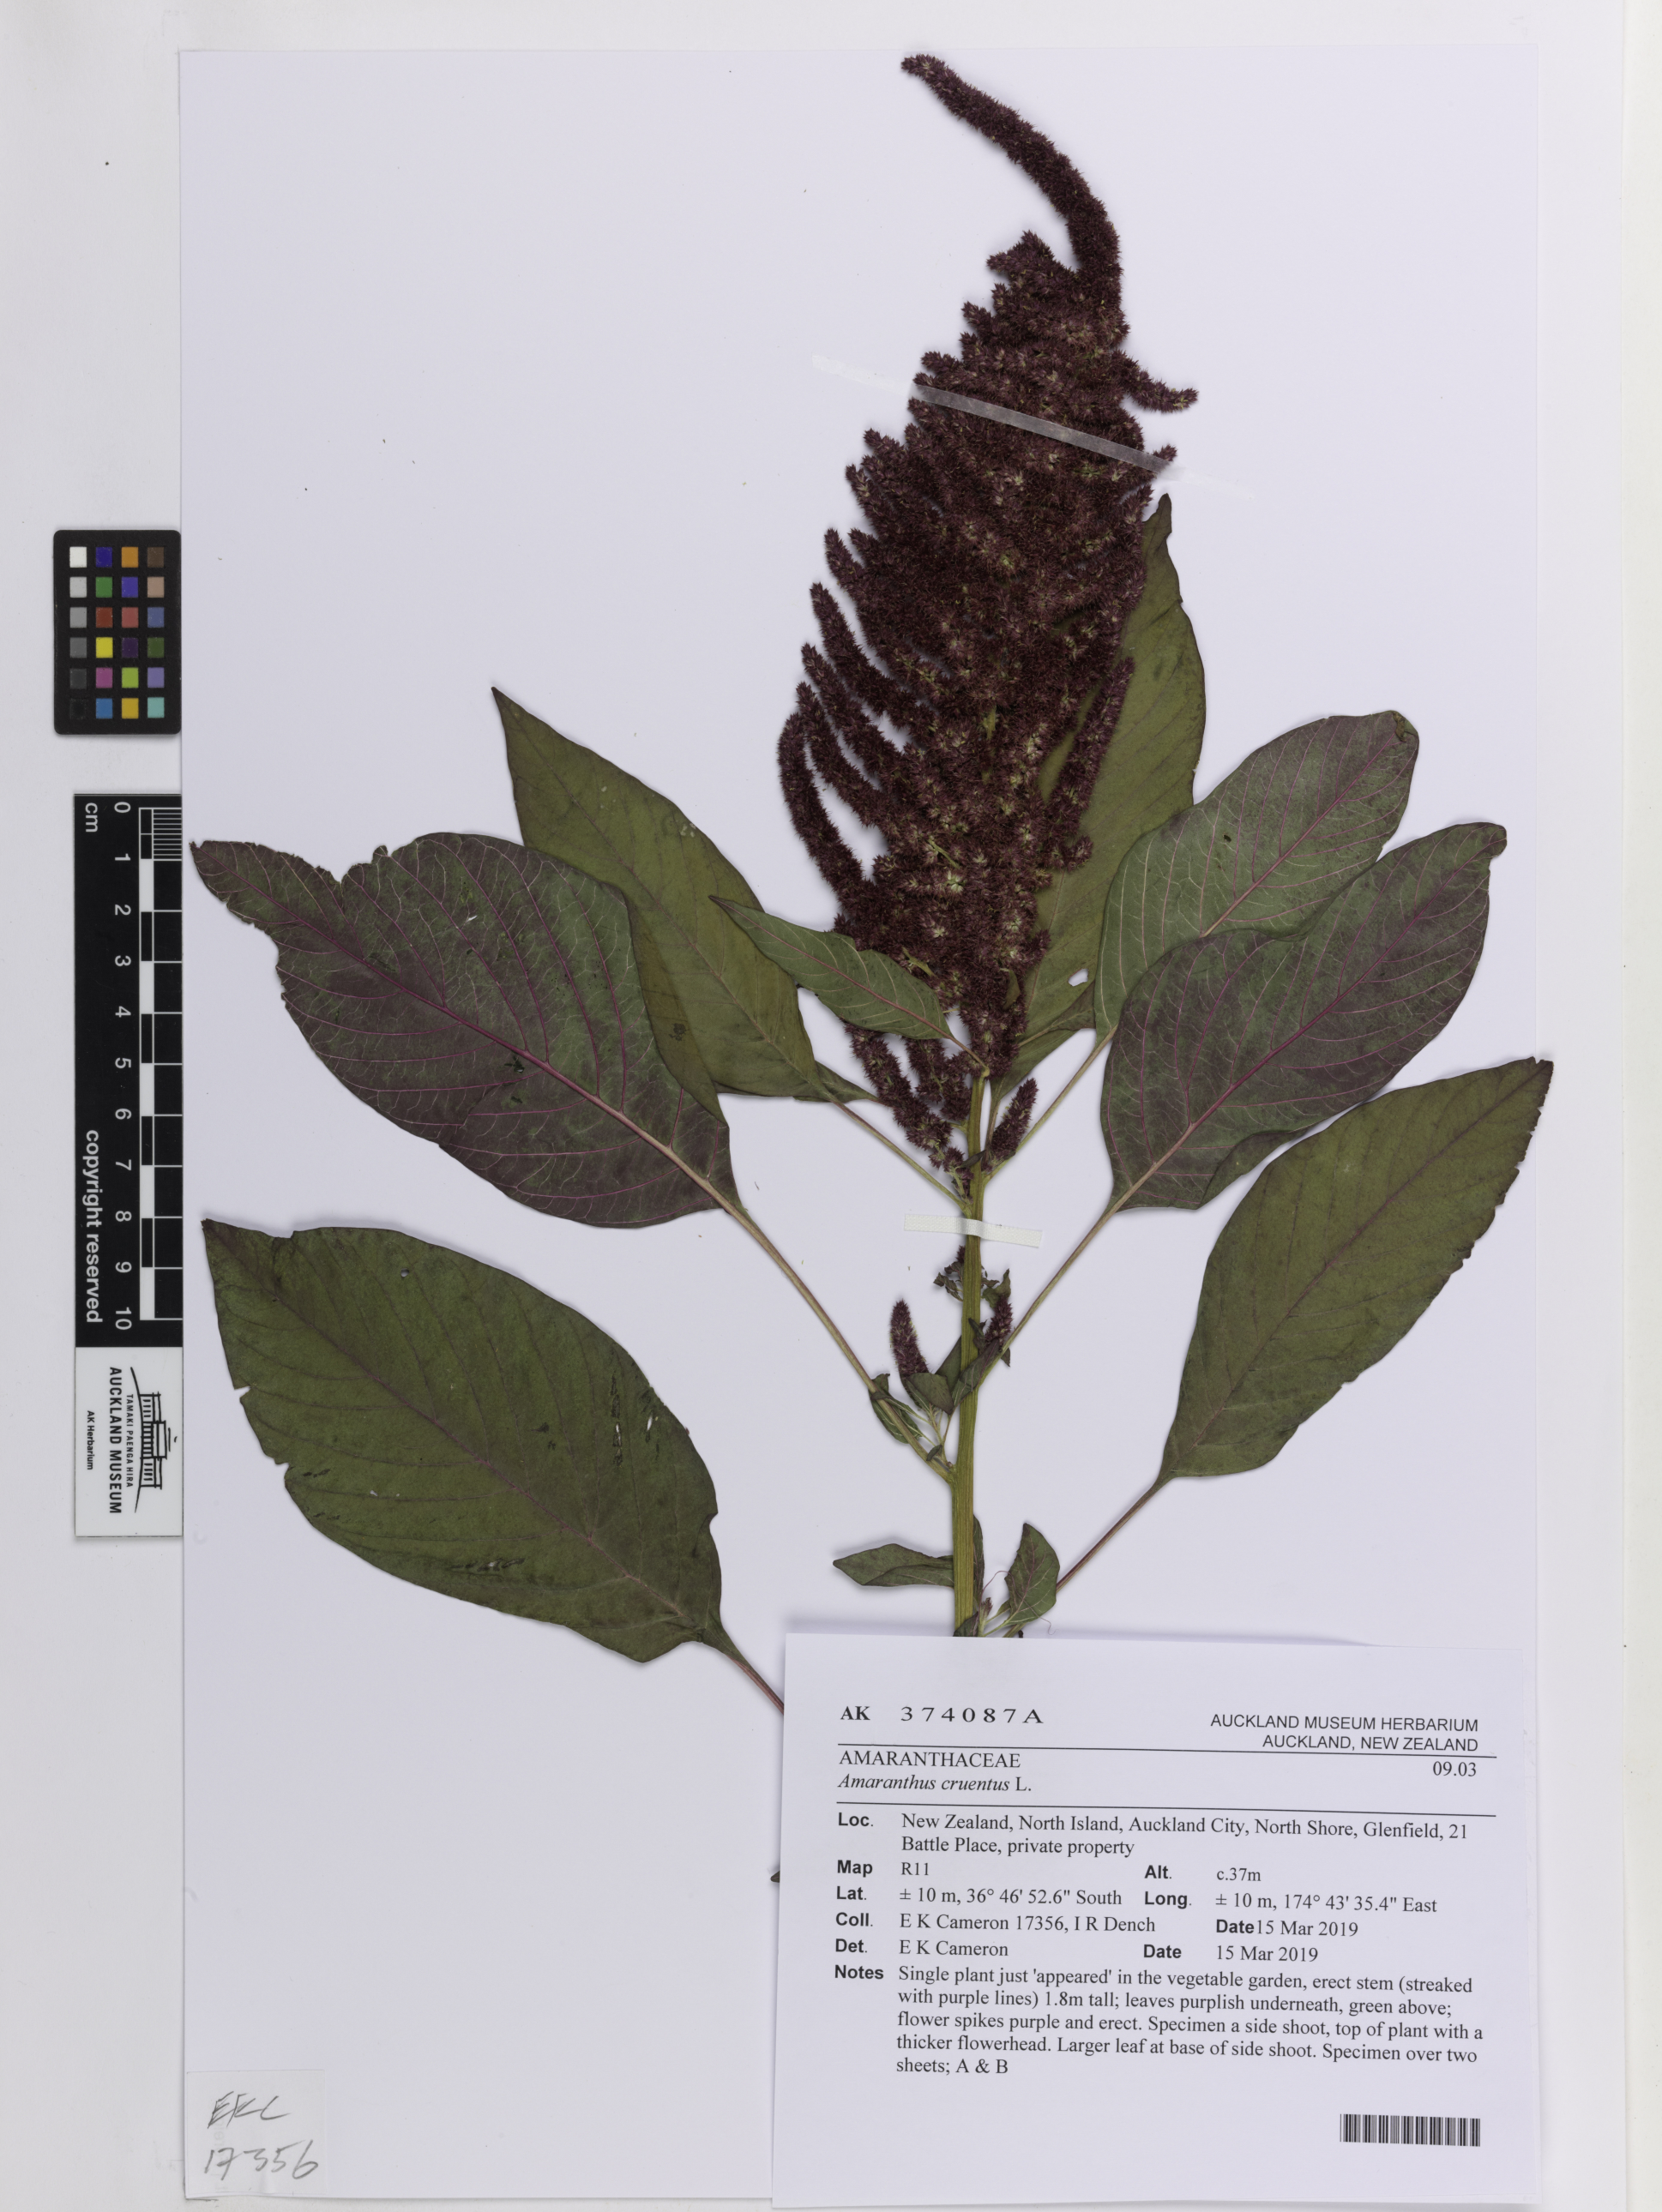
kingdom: Plantae
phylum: Tracheophyta
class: Magnoliopsida
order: Caryophyllales
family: Amaranthaceae
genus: Amaranthus
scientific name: Amaranthus cruentus
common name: Purple amaranth
